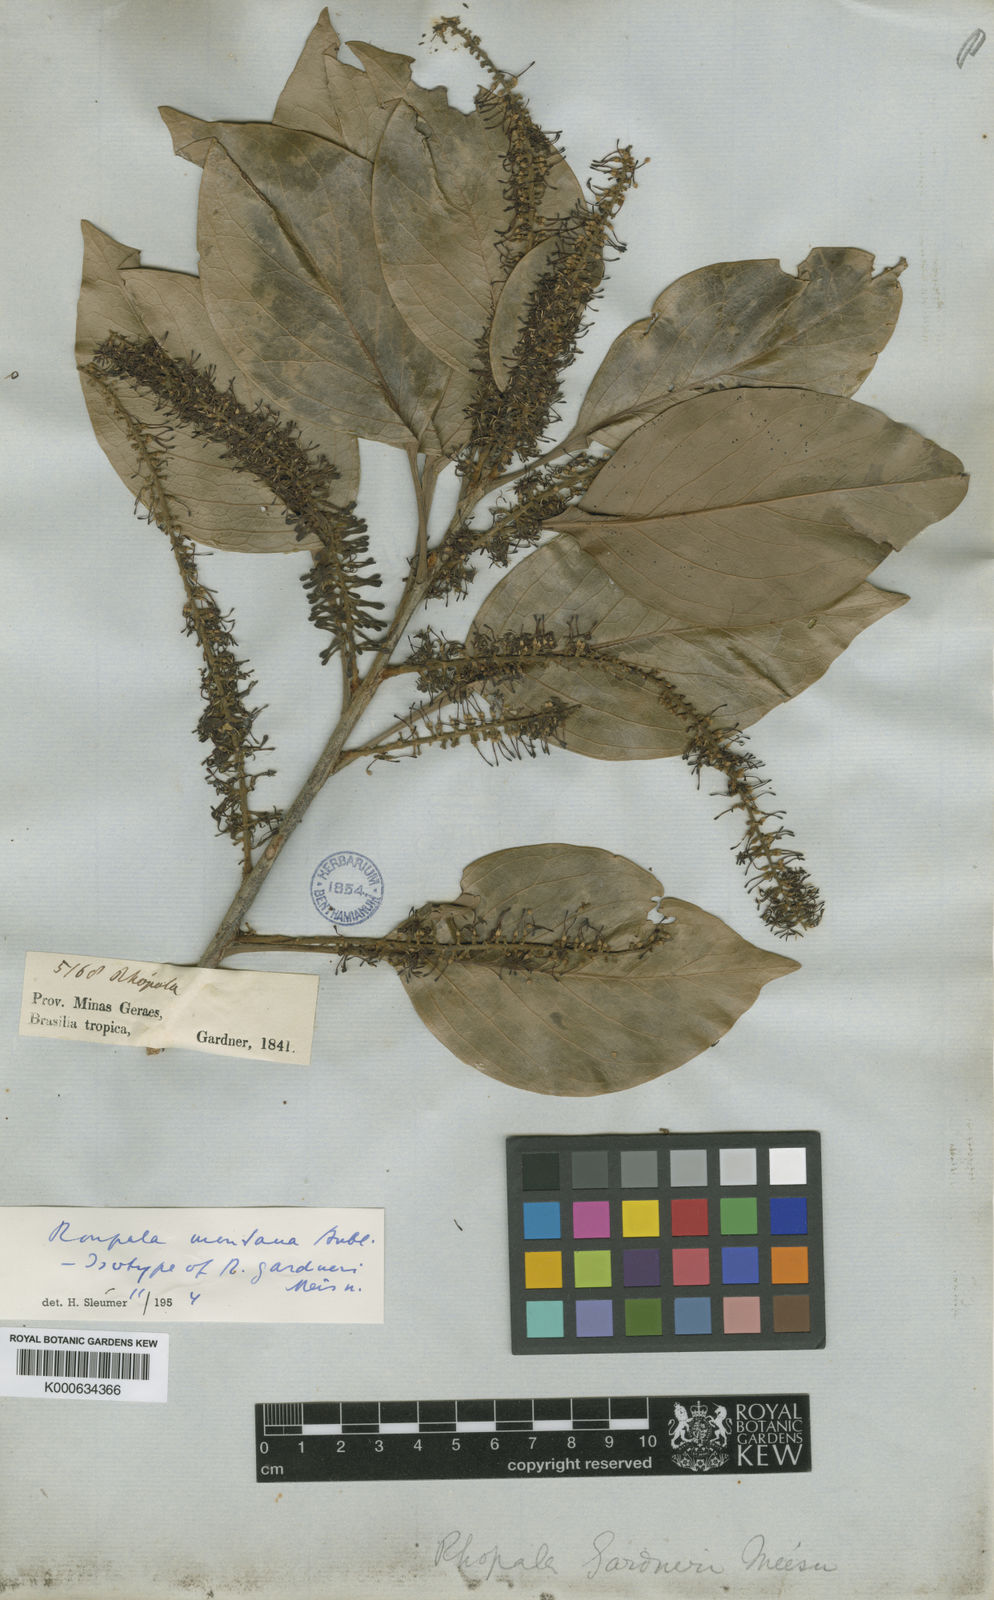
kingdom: Plantae
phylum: Tracheophyta
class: Magnoliopsida
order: Proteales
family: Proteaceae
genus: Roupala
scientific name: Roupala montana
